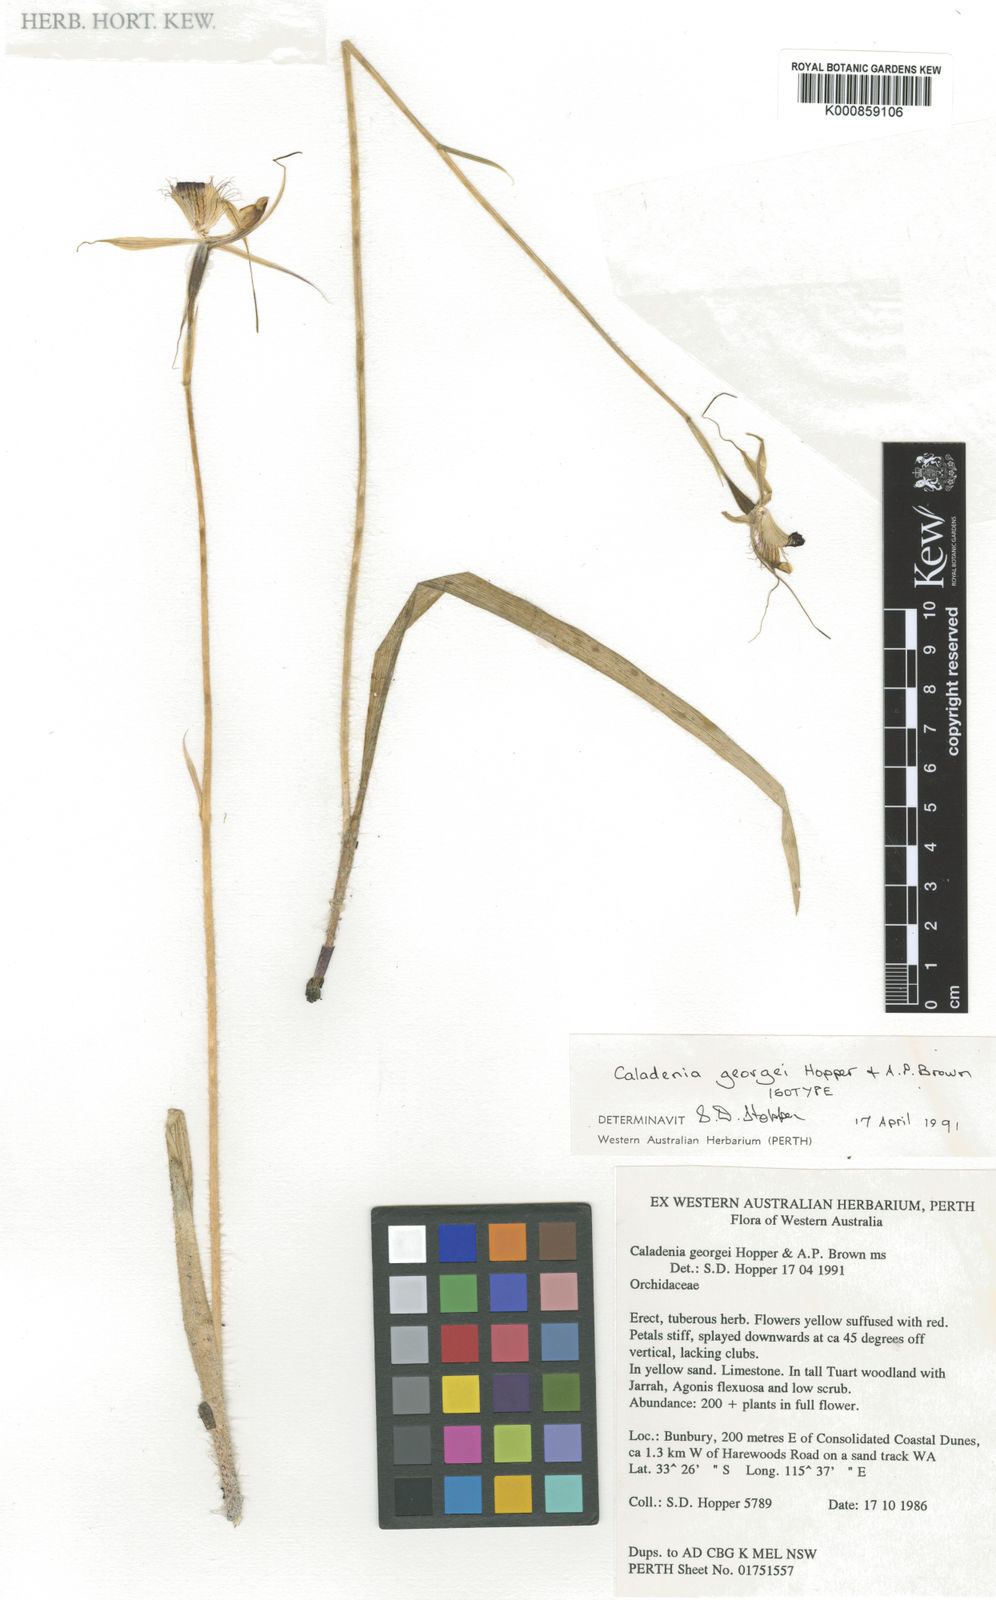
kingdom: Plantae
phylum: Tracheophyta
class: Liliopsida
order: Asparagales
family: Orchidaceae
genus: Caladenia
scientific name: Caladenia georgei
